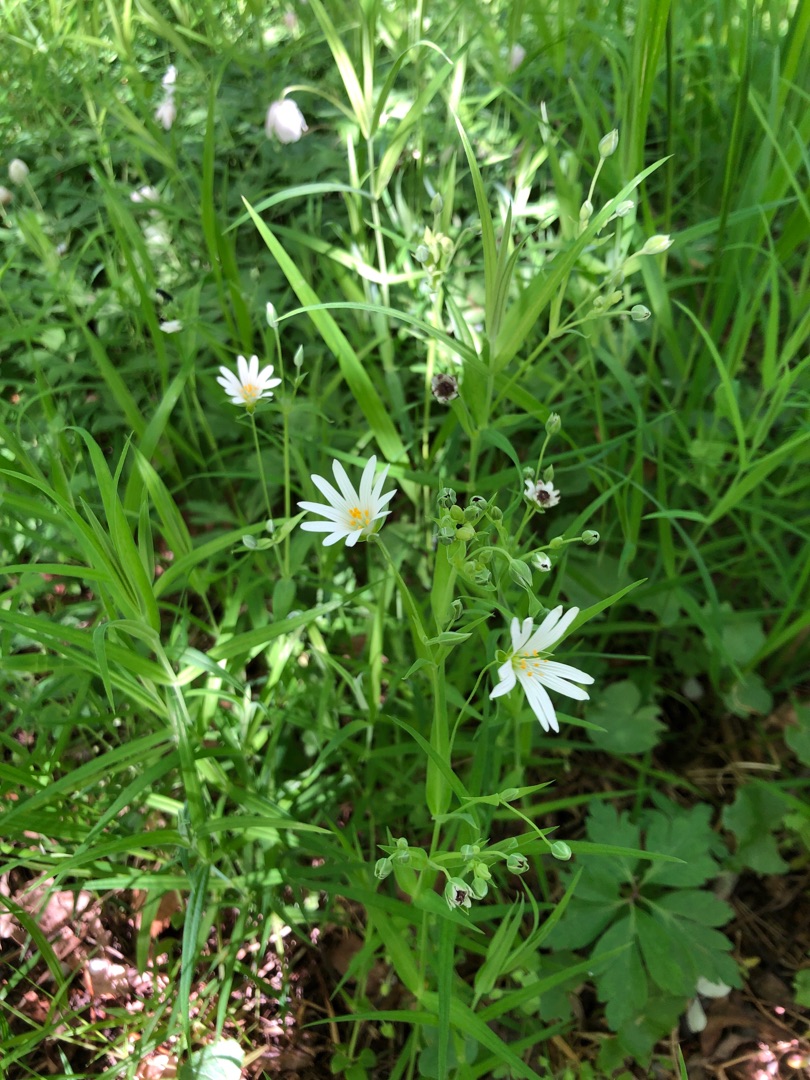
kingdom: Plantae
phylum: Tracheophyta
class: Magnoliopsida
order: Caryophyllales
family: Caryophyllaceae
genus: Rabelera
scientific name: Rabelera holostea
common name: Stor fladstjerne
